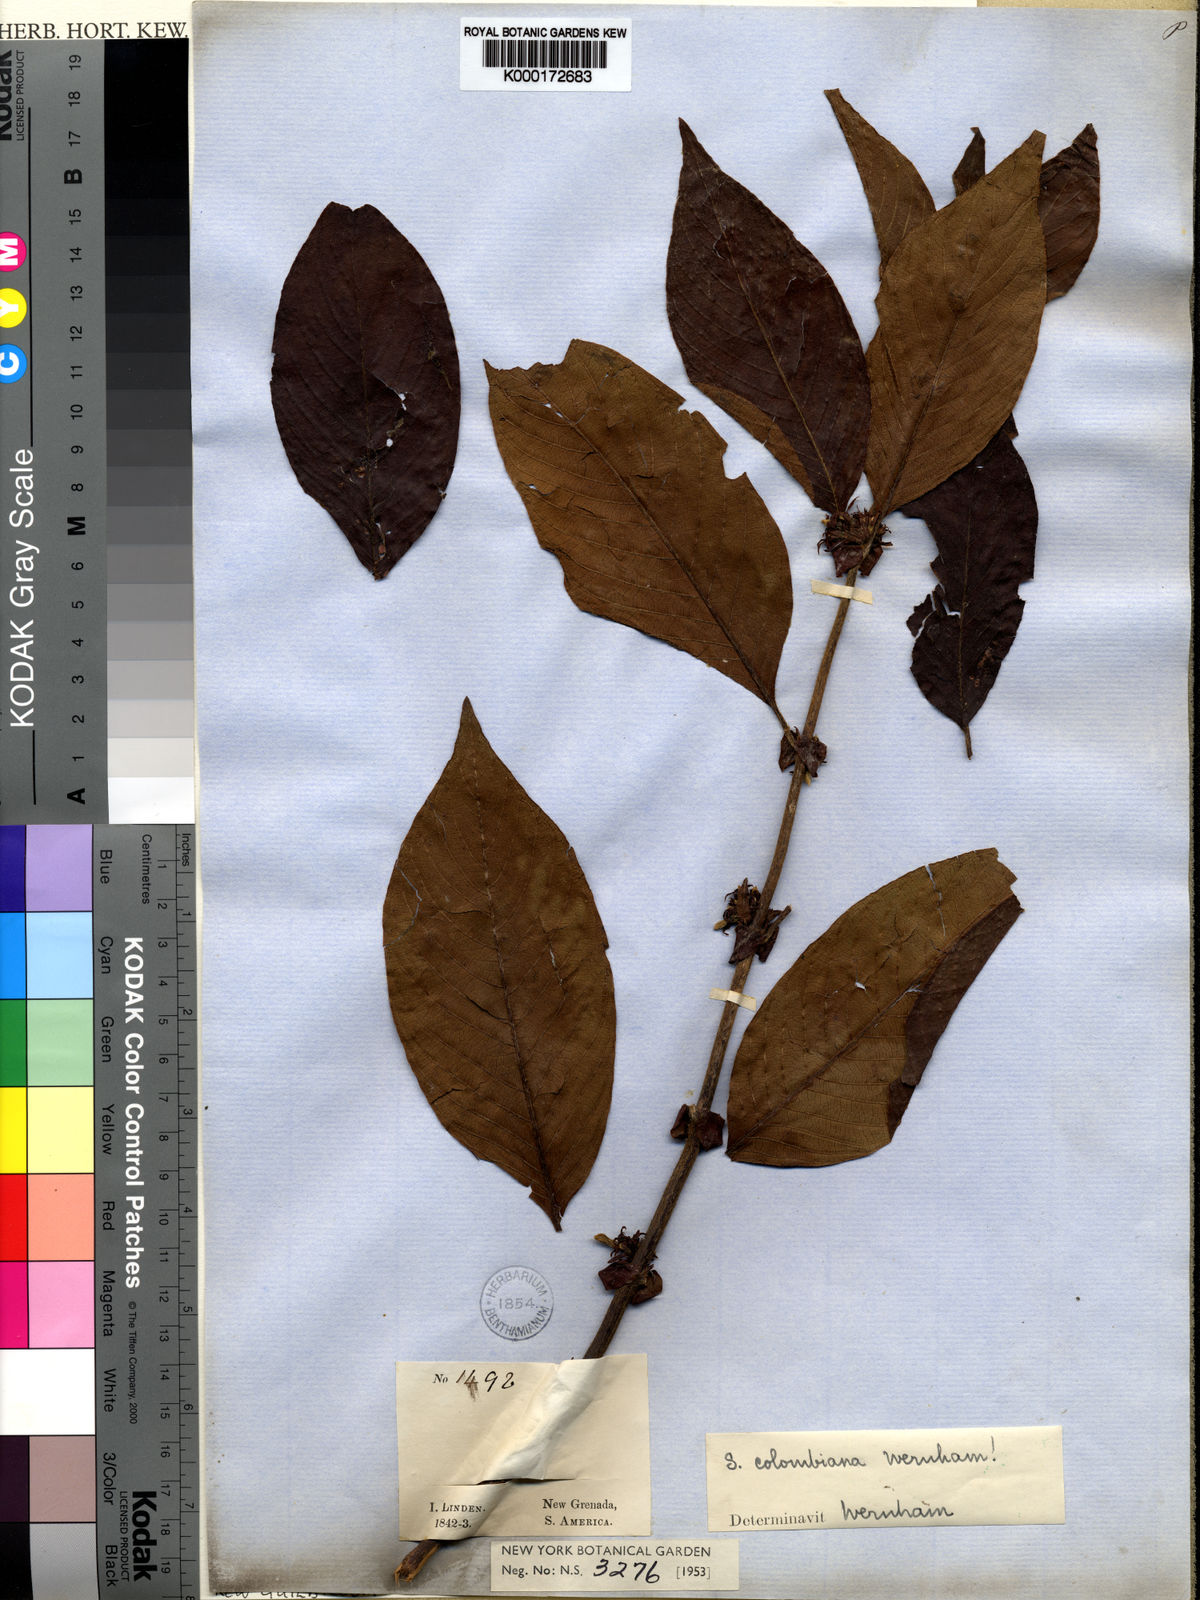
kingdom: Plantae
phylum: Tracheophyta
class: Magnoliopsida
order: Gentianales
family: Rubiaceae
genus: Sabicea
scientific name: Sabicea panamensis
